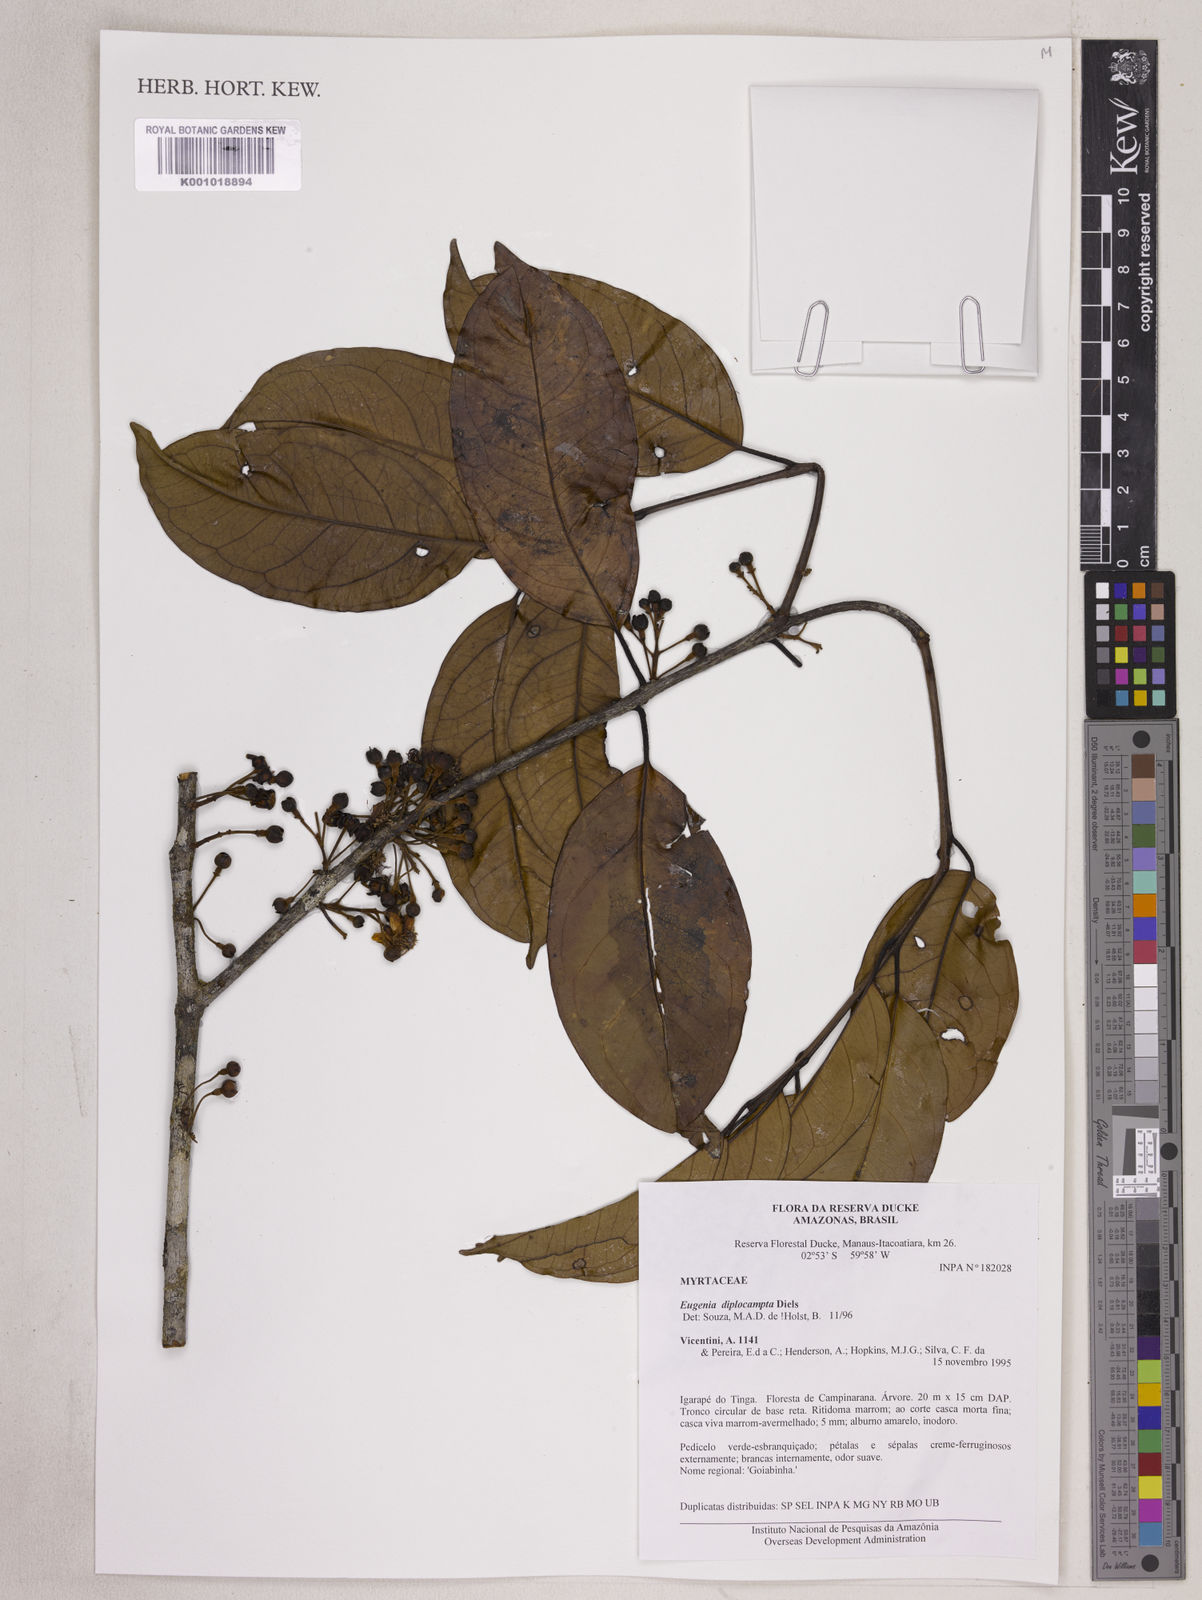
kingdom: Plantae
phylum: Tracheophyta
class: Magnoliopsida
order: Myrtales
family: Myrtaceae
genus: Eugenia
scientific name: Eugenia joseramosii
